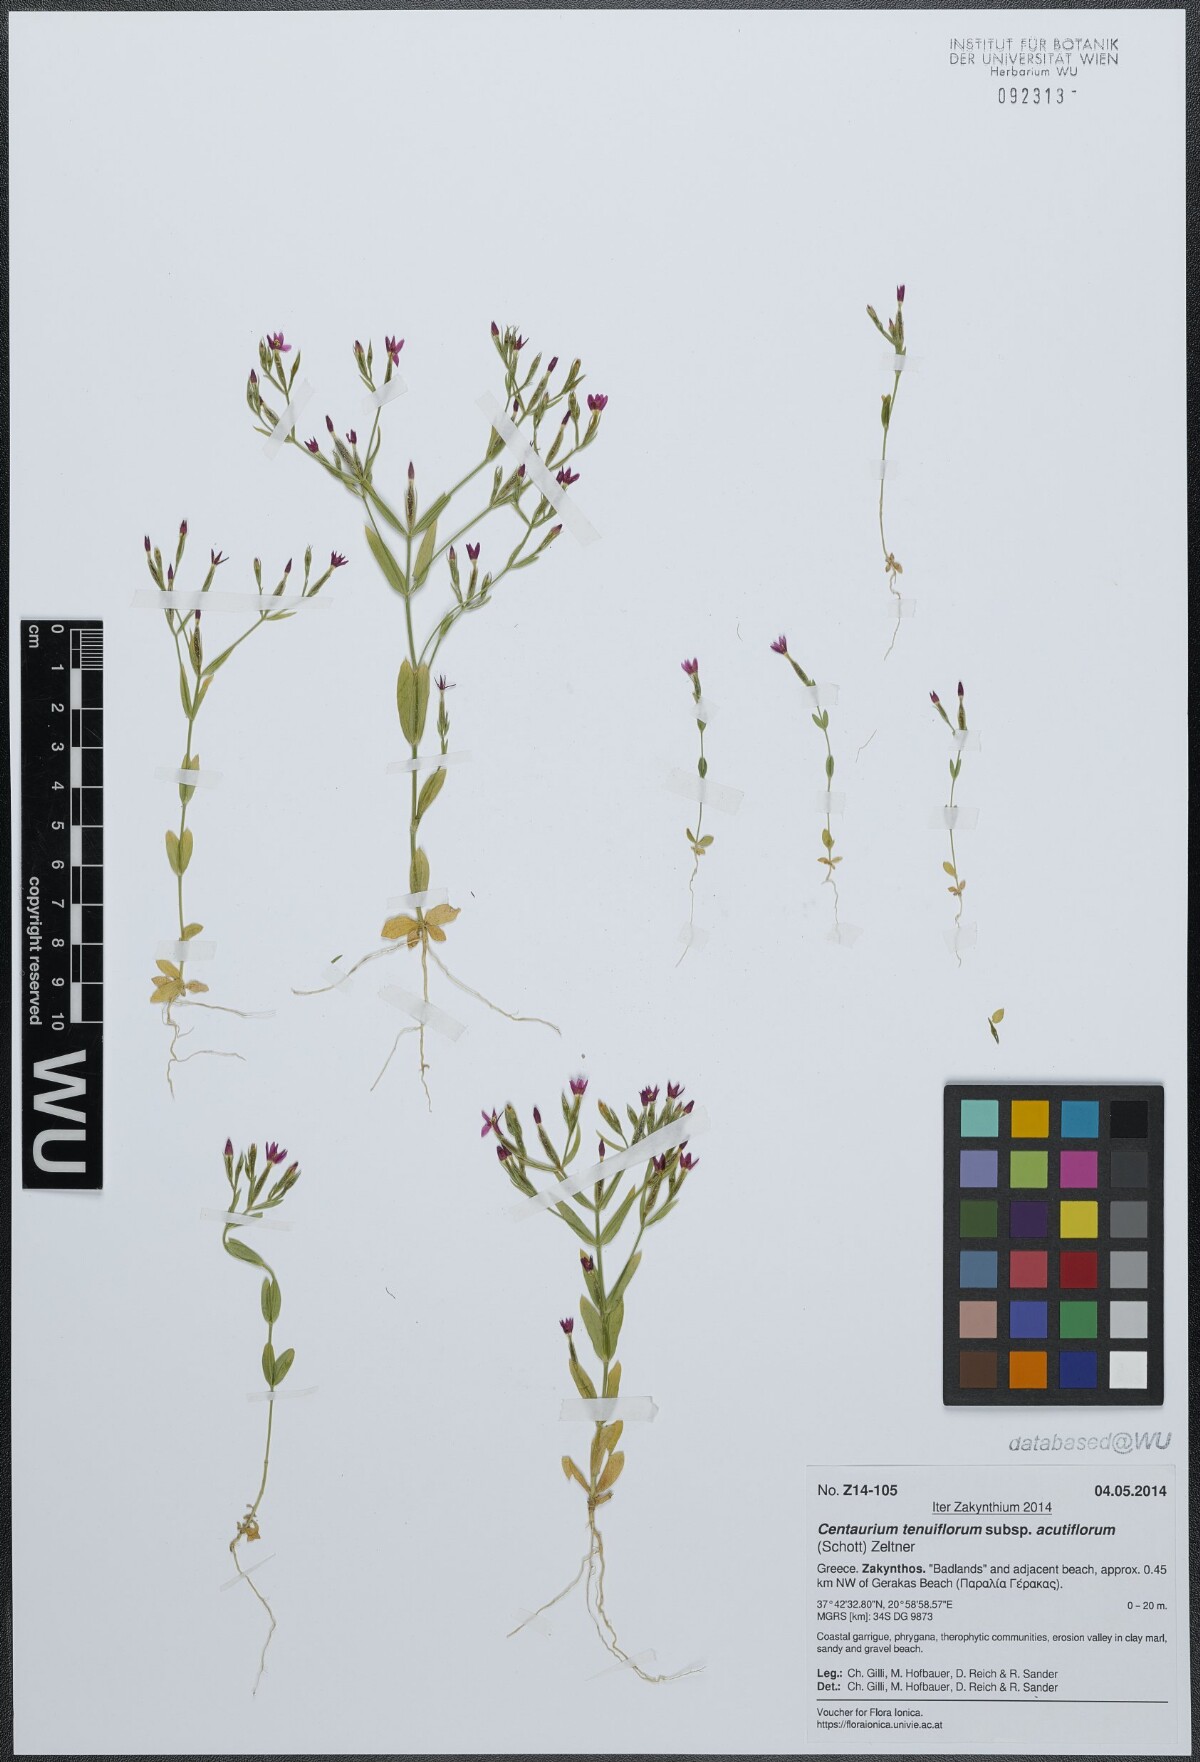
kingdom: Plantae
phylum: Tracheophyta
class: Magnoliopsida
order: Gentianales
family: Gentianaceae
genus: Centaurium
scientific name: Centaurium tenuiflorum
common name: Slender centaury
